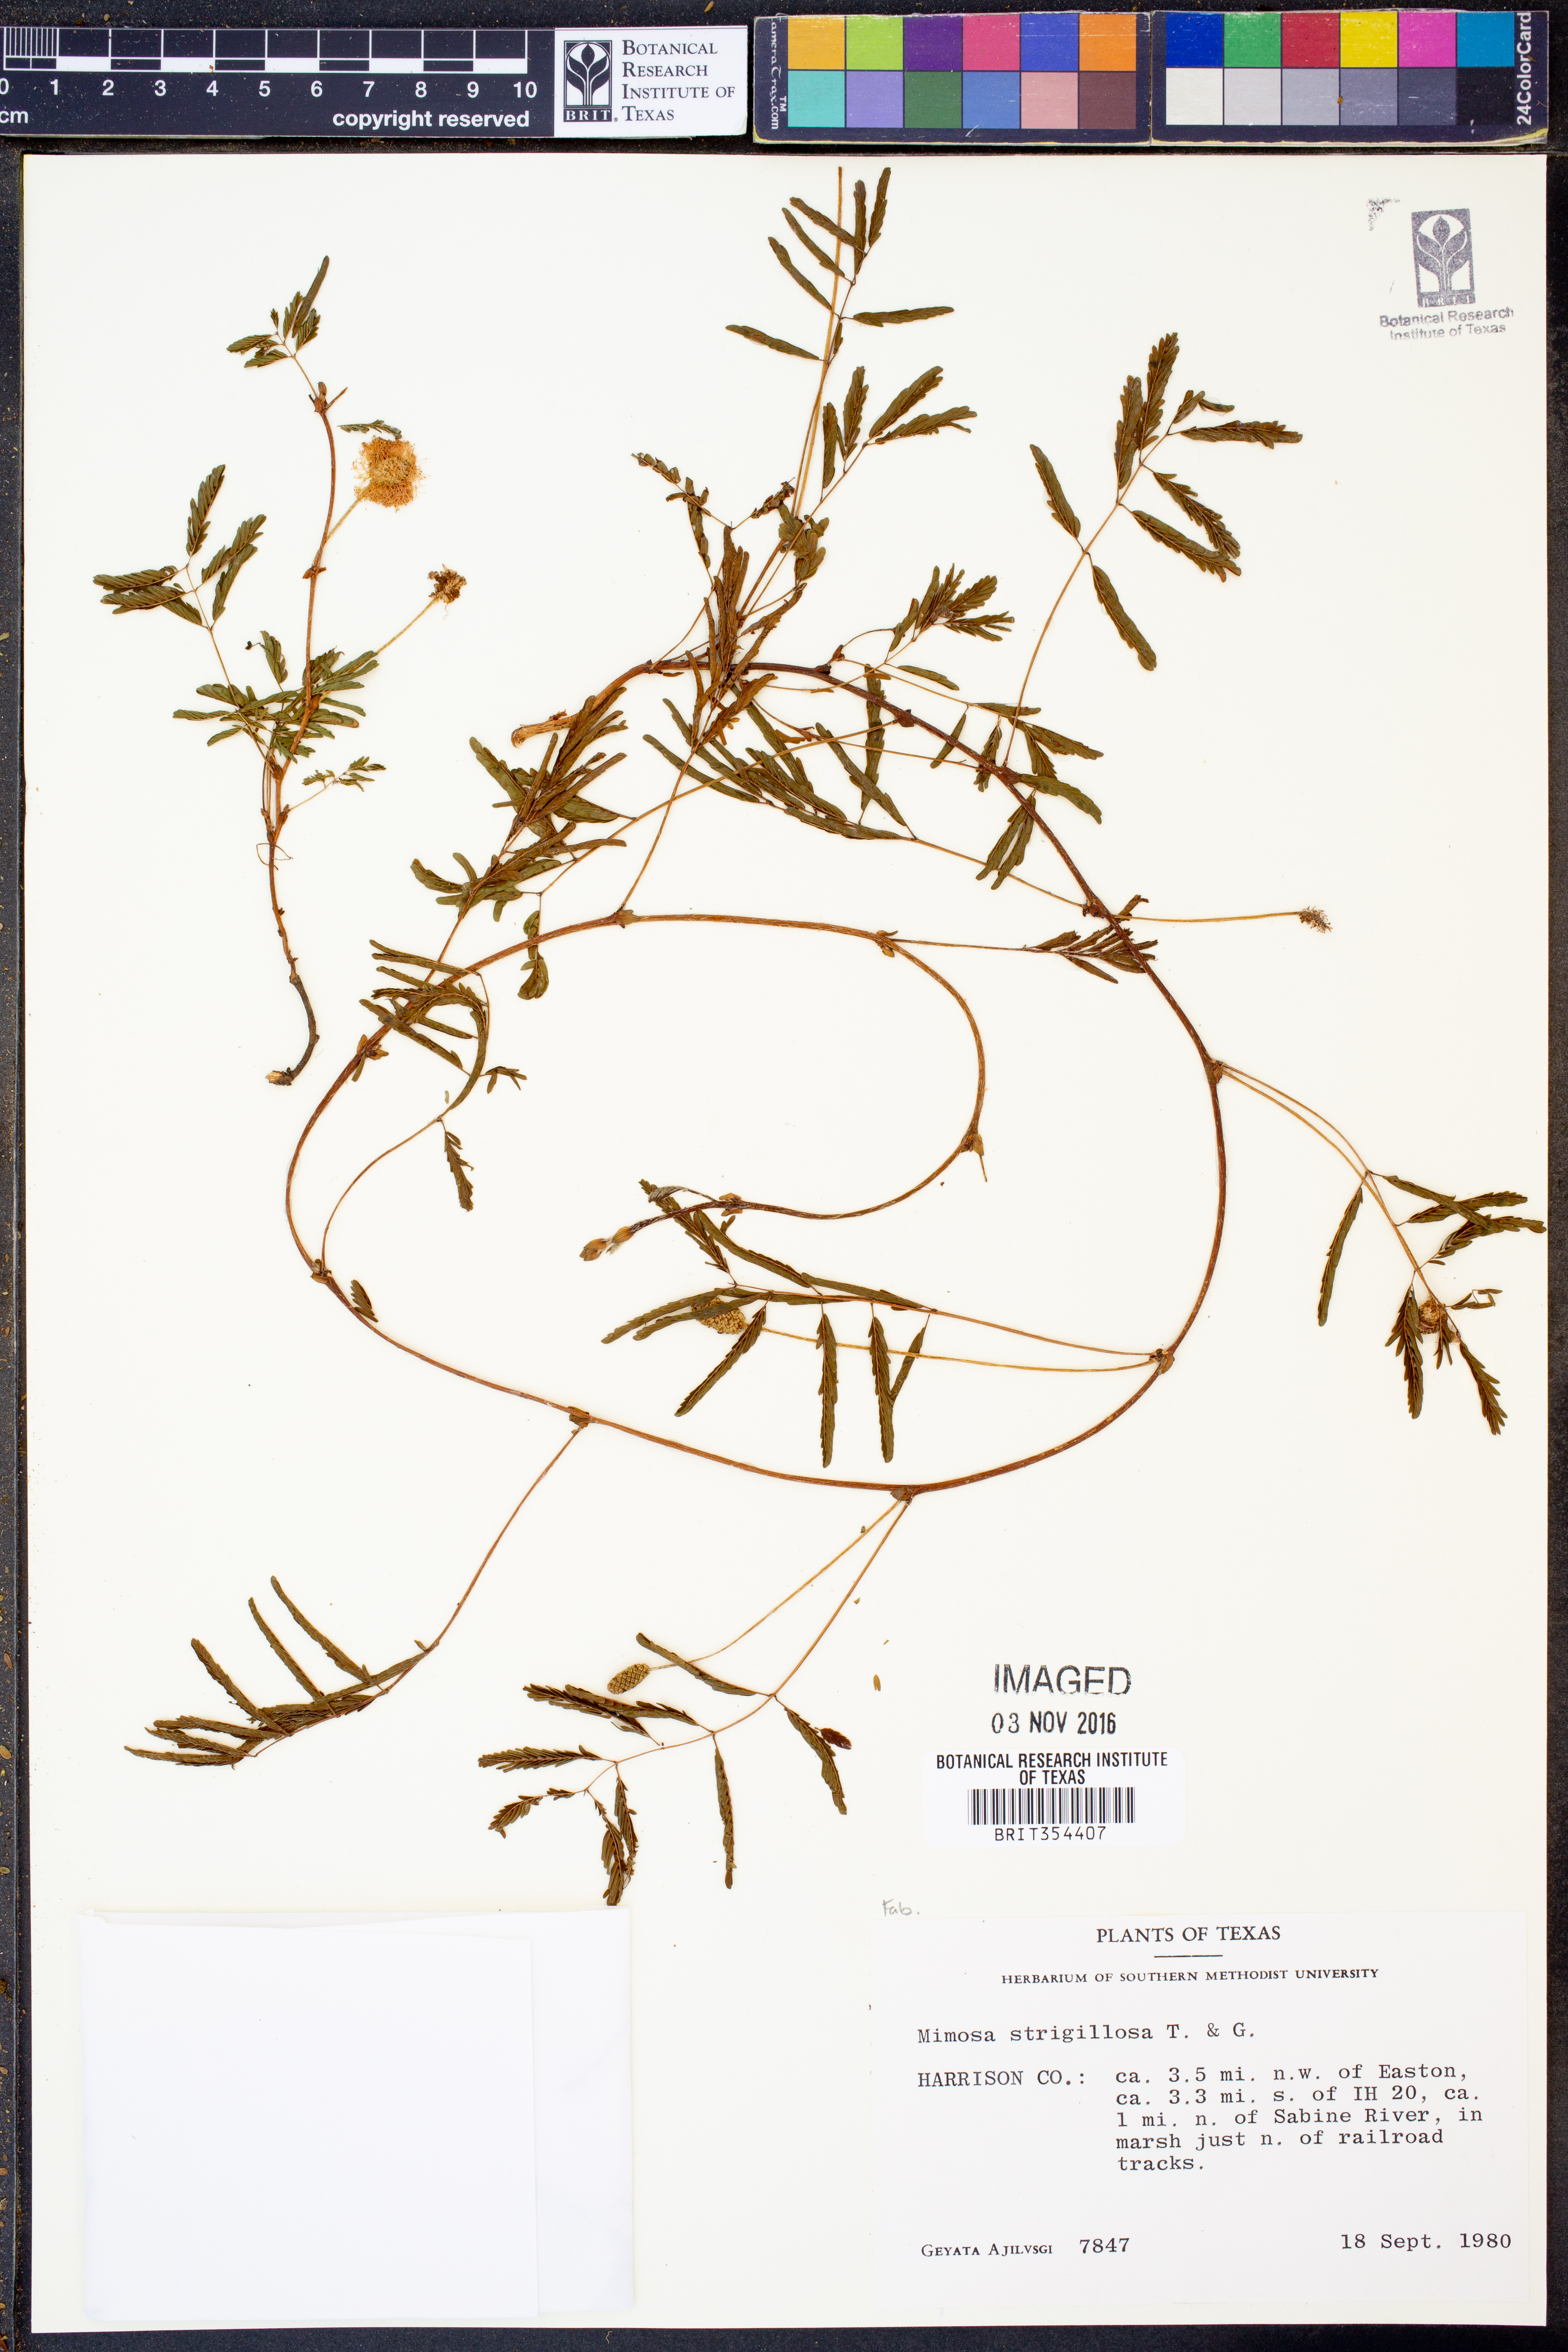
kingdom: Plantae
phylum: Tracheophyta
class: Magnoliopsida
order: Fabales
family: Fabaceae
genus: Mimosa
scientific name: Mimosa strigillosa
